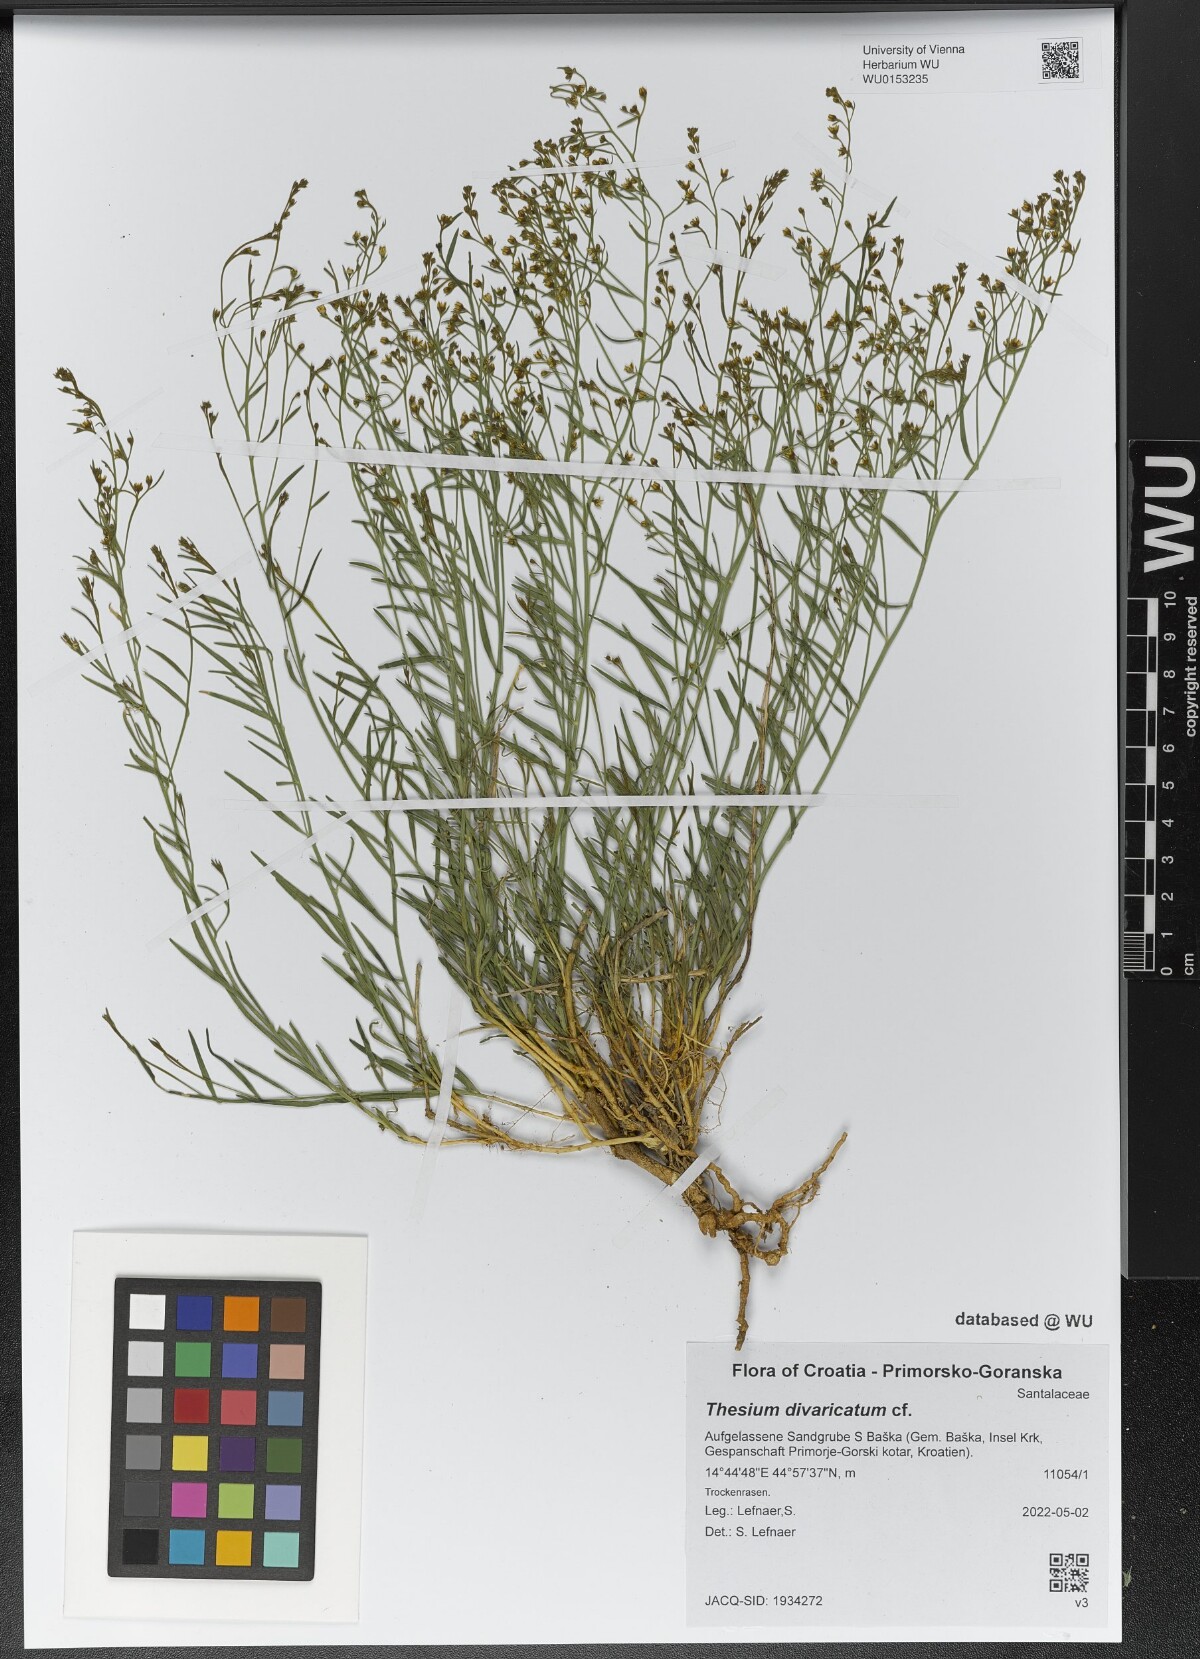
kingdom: Plantae
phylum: Tracheophyta
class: Magnoliopsida
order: Santalales
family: Thesiaceae
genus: Thesium
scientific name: Thesium divaricatum
